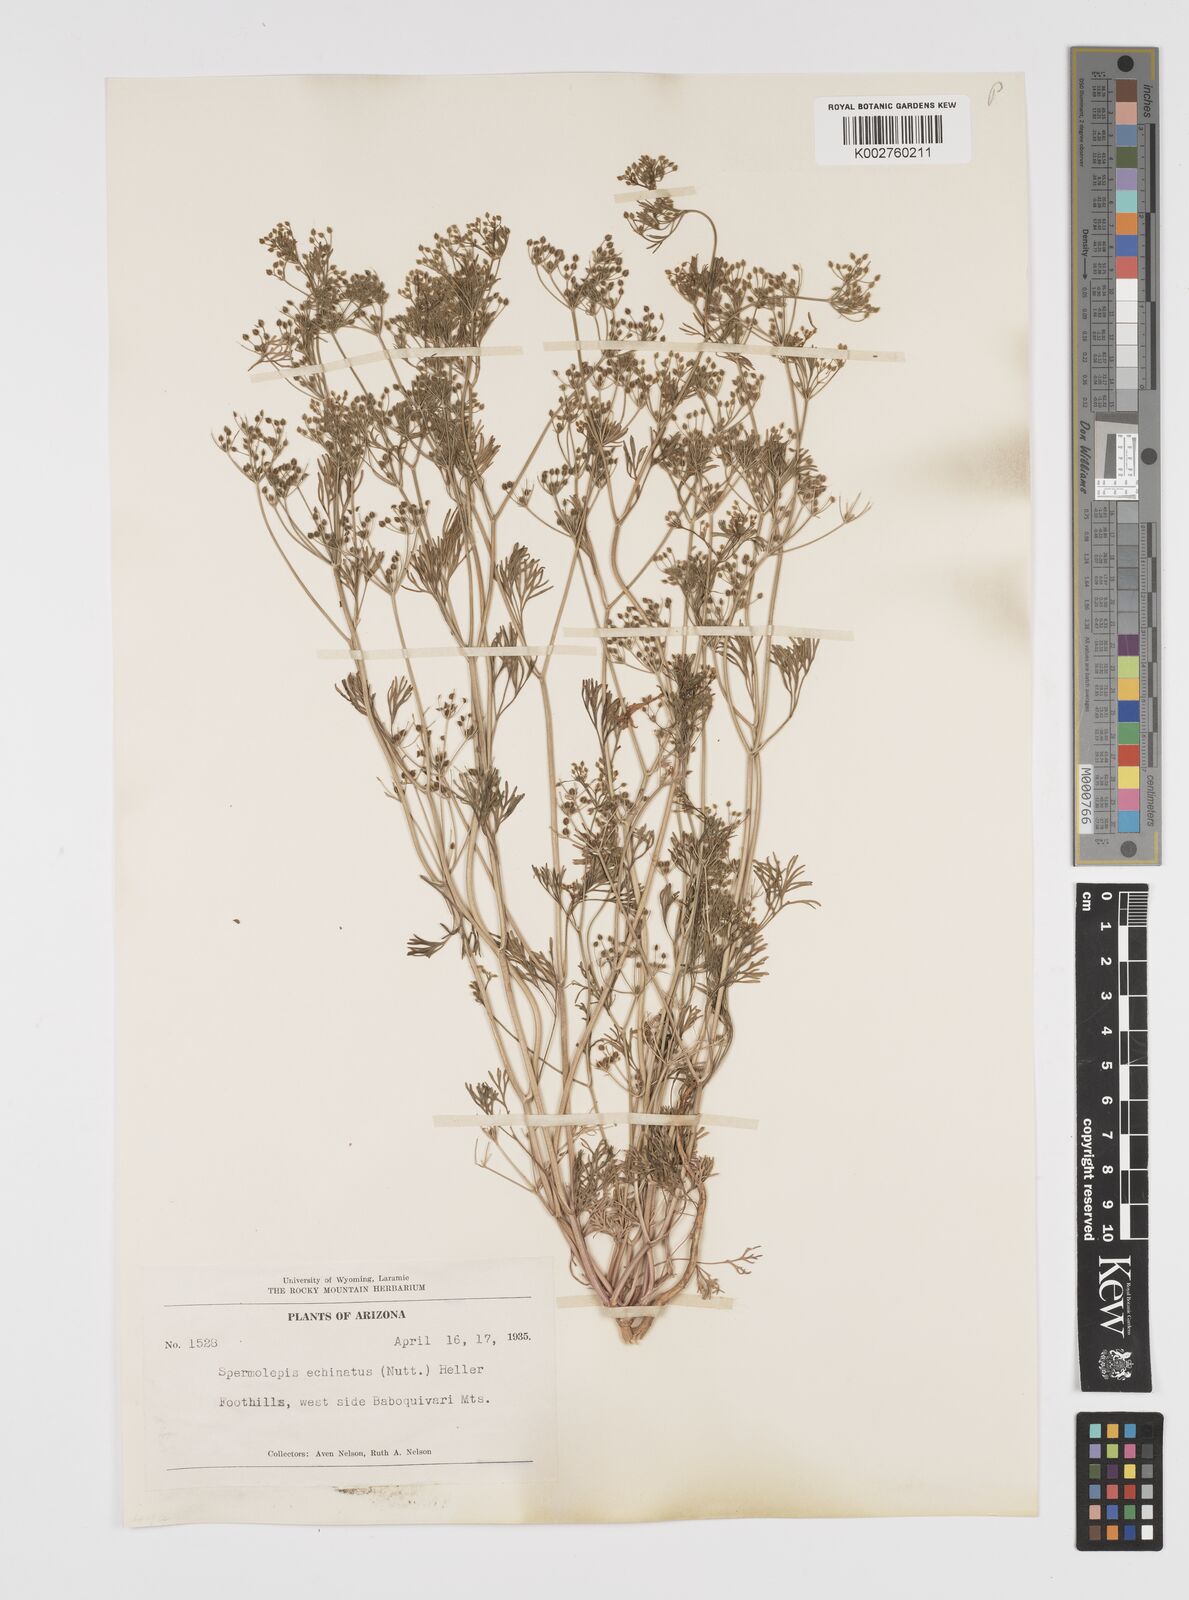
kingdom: Plantae
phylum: Tracheophyta
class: Magnoliopsida
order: Apiales
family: Apiaceae
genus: Spermolepis
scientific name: Spermolepis echinata
